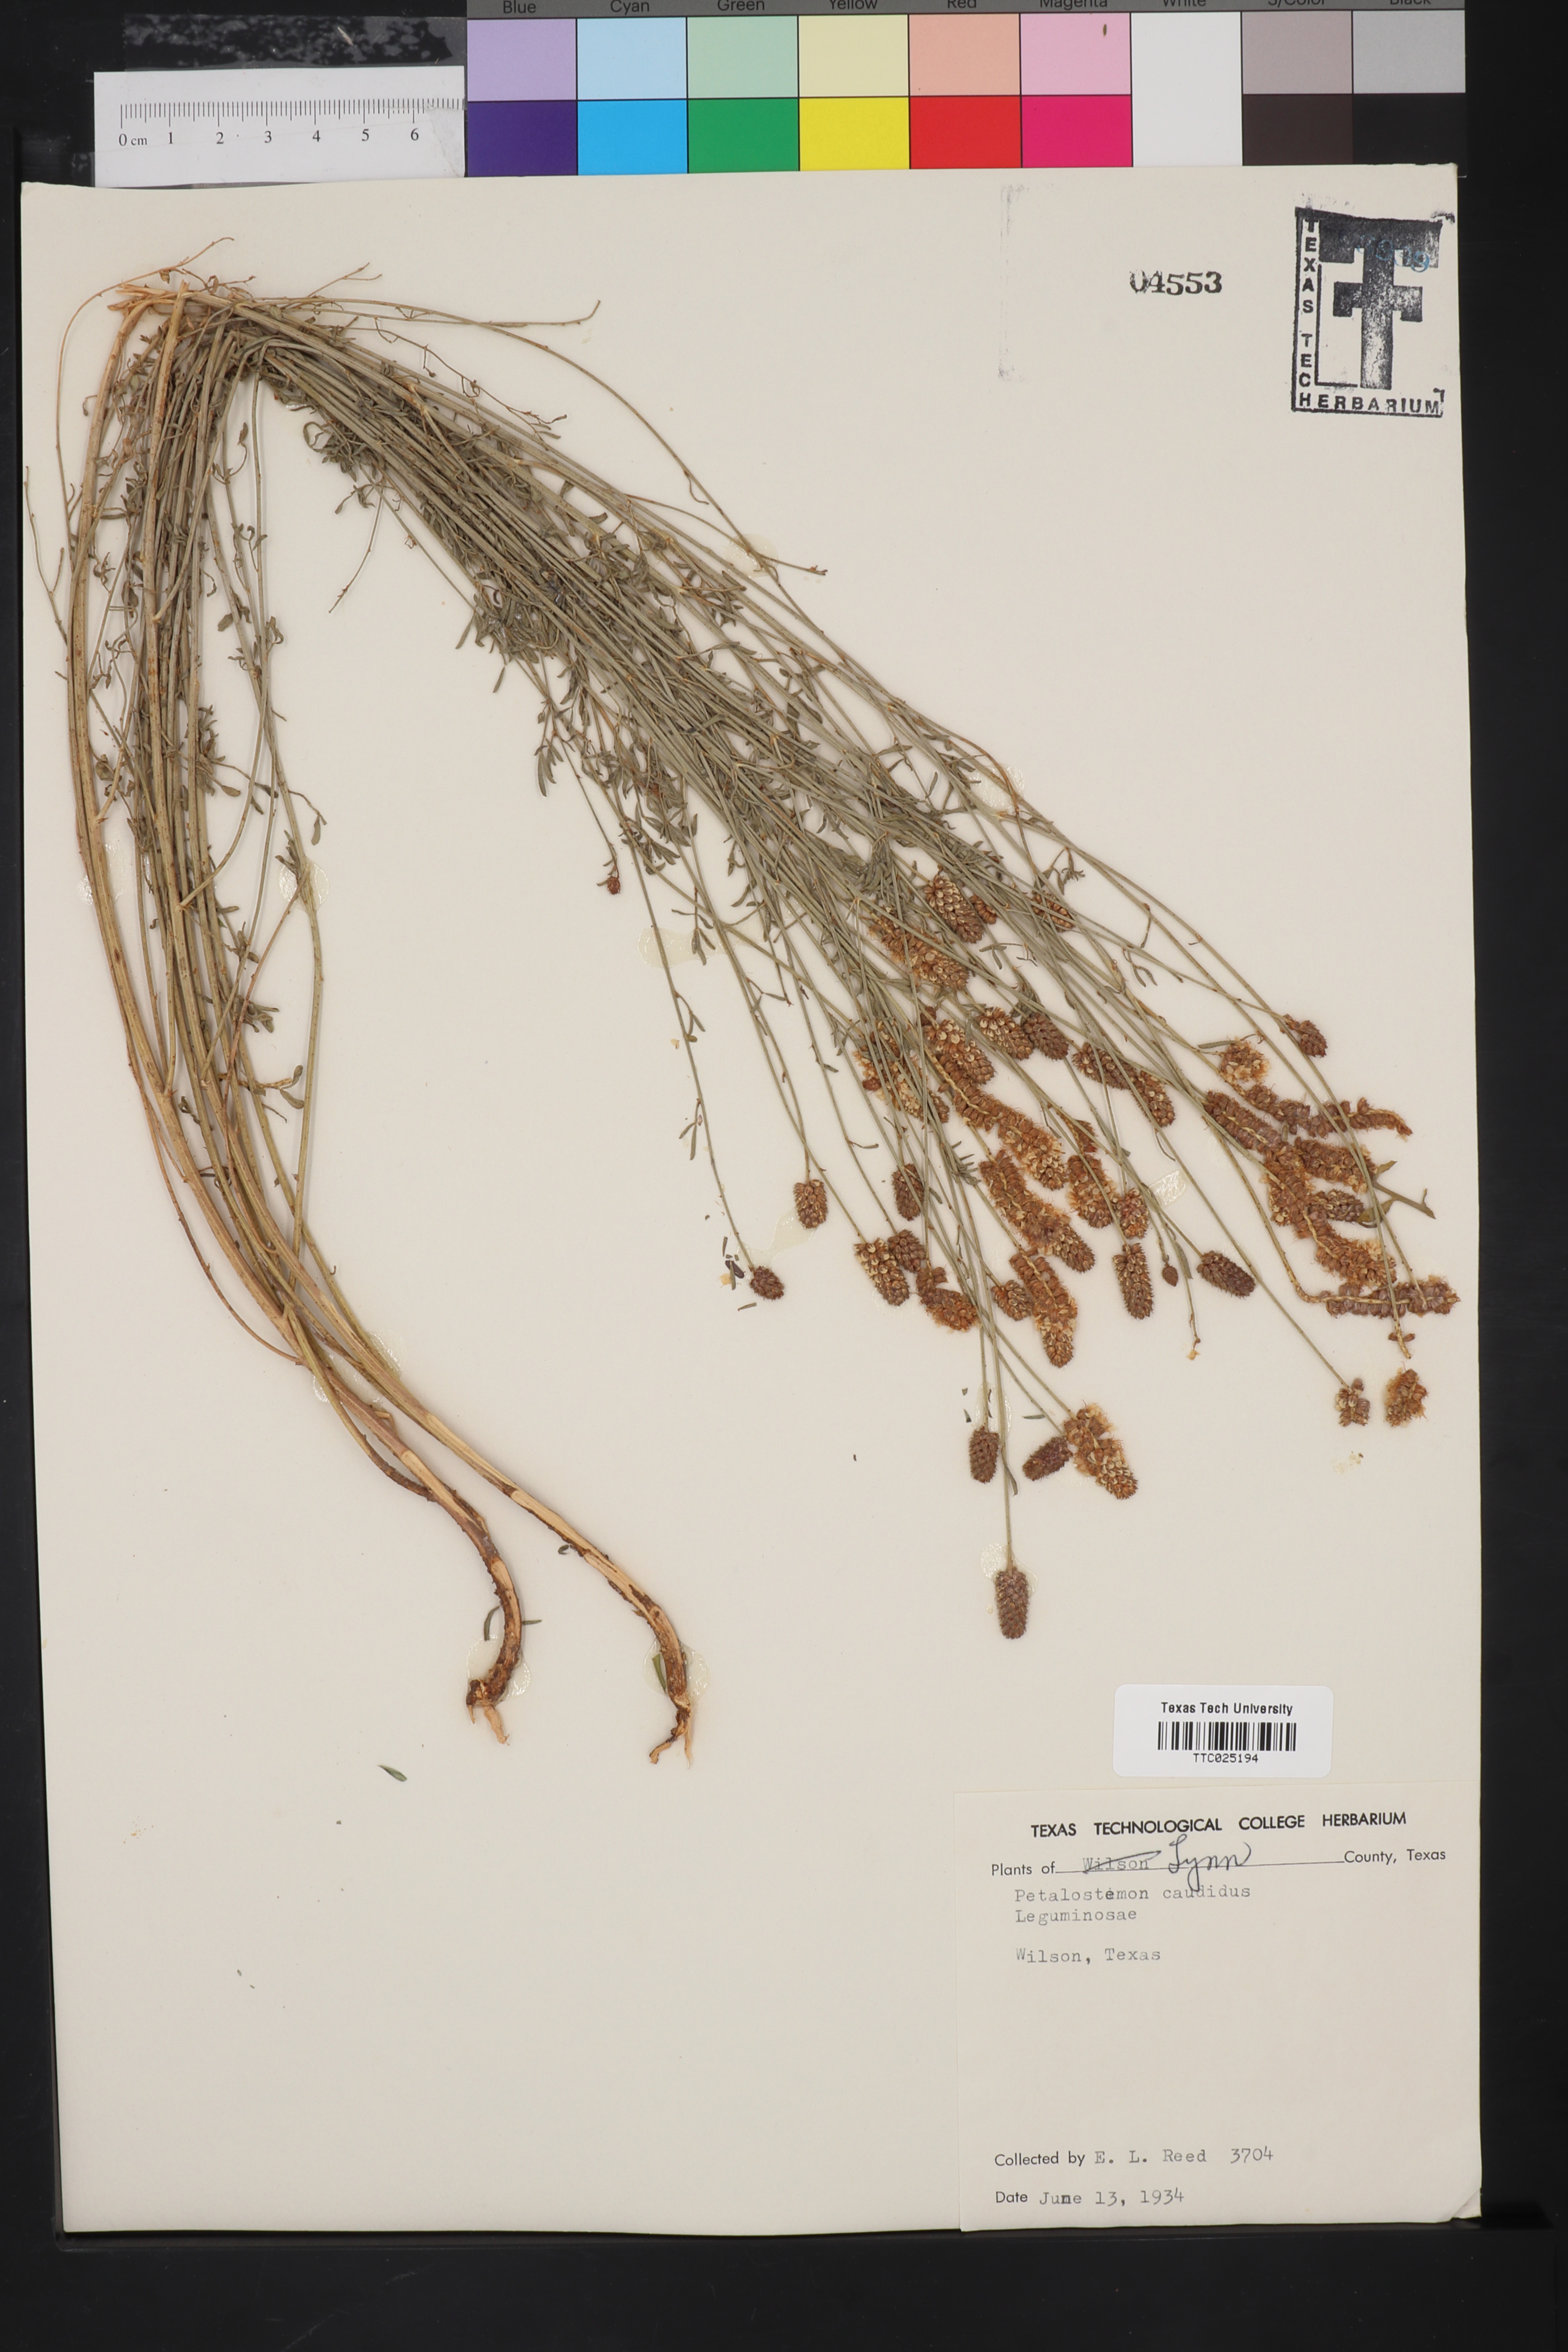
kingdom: Plantae
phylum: Tracheophyta
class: Magnoliopsida
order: Fabales
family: Fabaceae
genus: Dalea
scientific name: Dalea candida
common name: White prairie-clover
